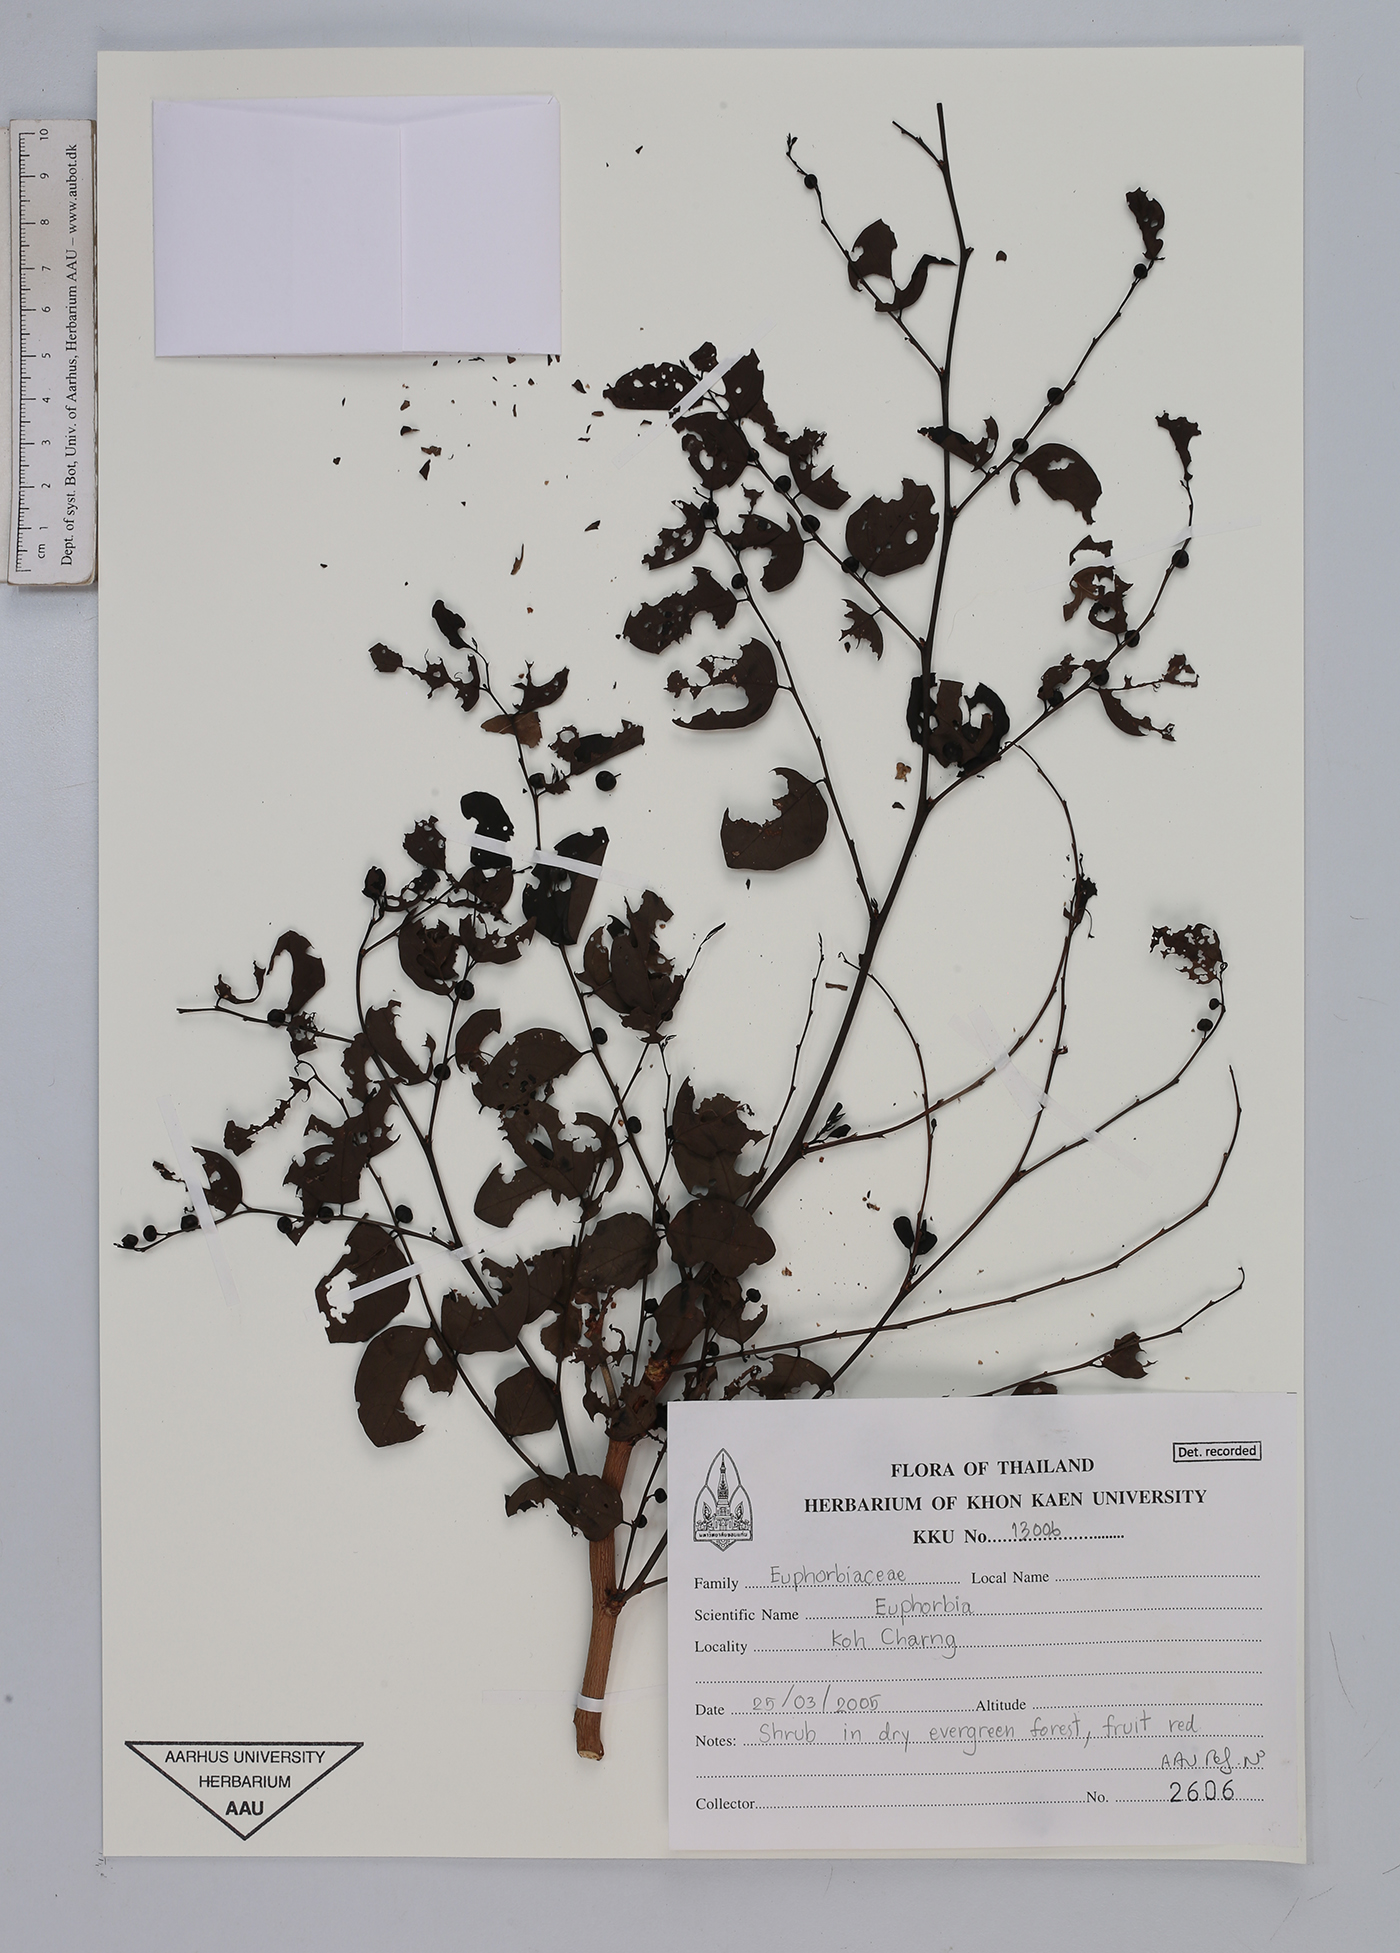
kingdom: Plantae
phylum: Tracheophyta
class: Magnoliopsida
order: Malpighiales
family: Euphorbiaceae
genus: Euphorbia
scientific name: Euphorbia
